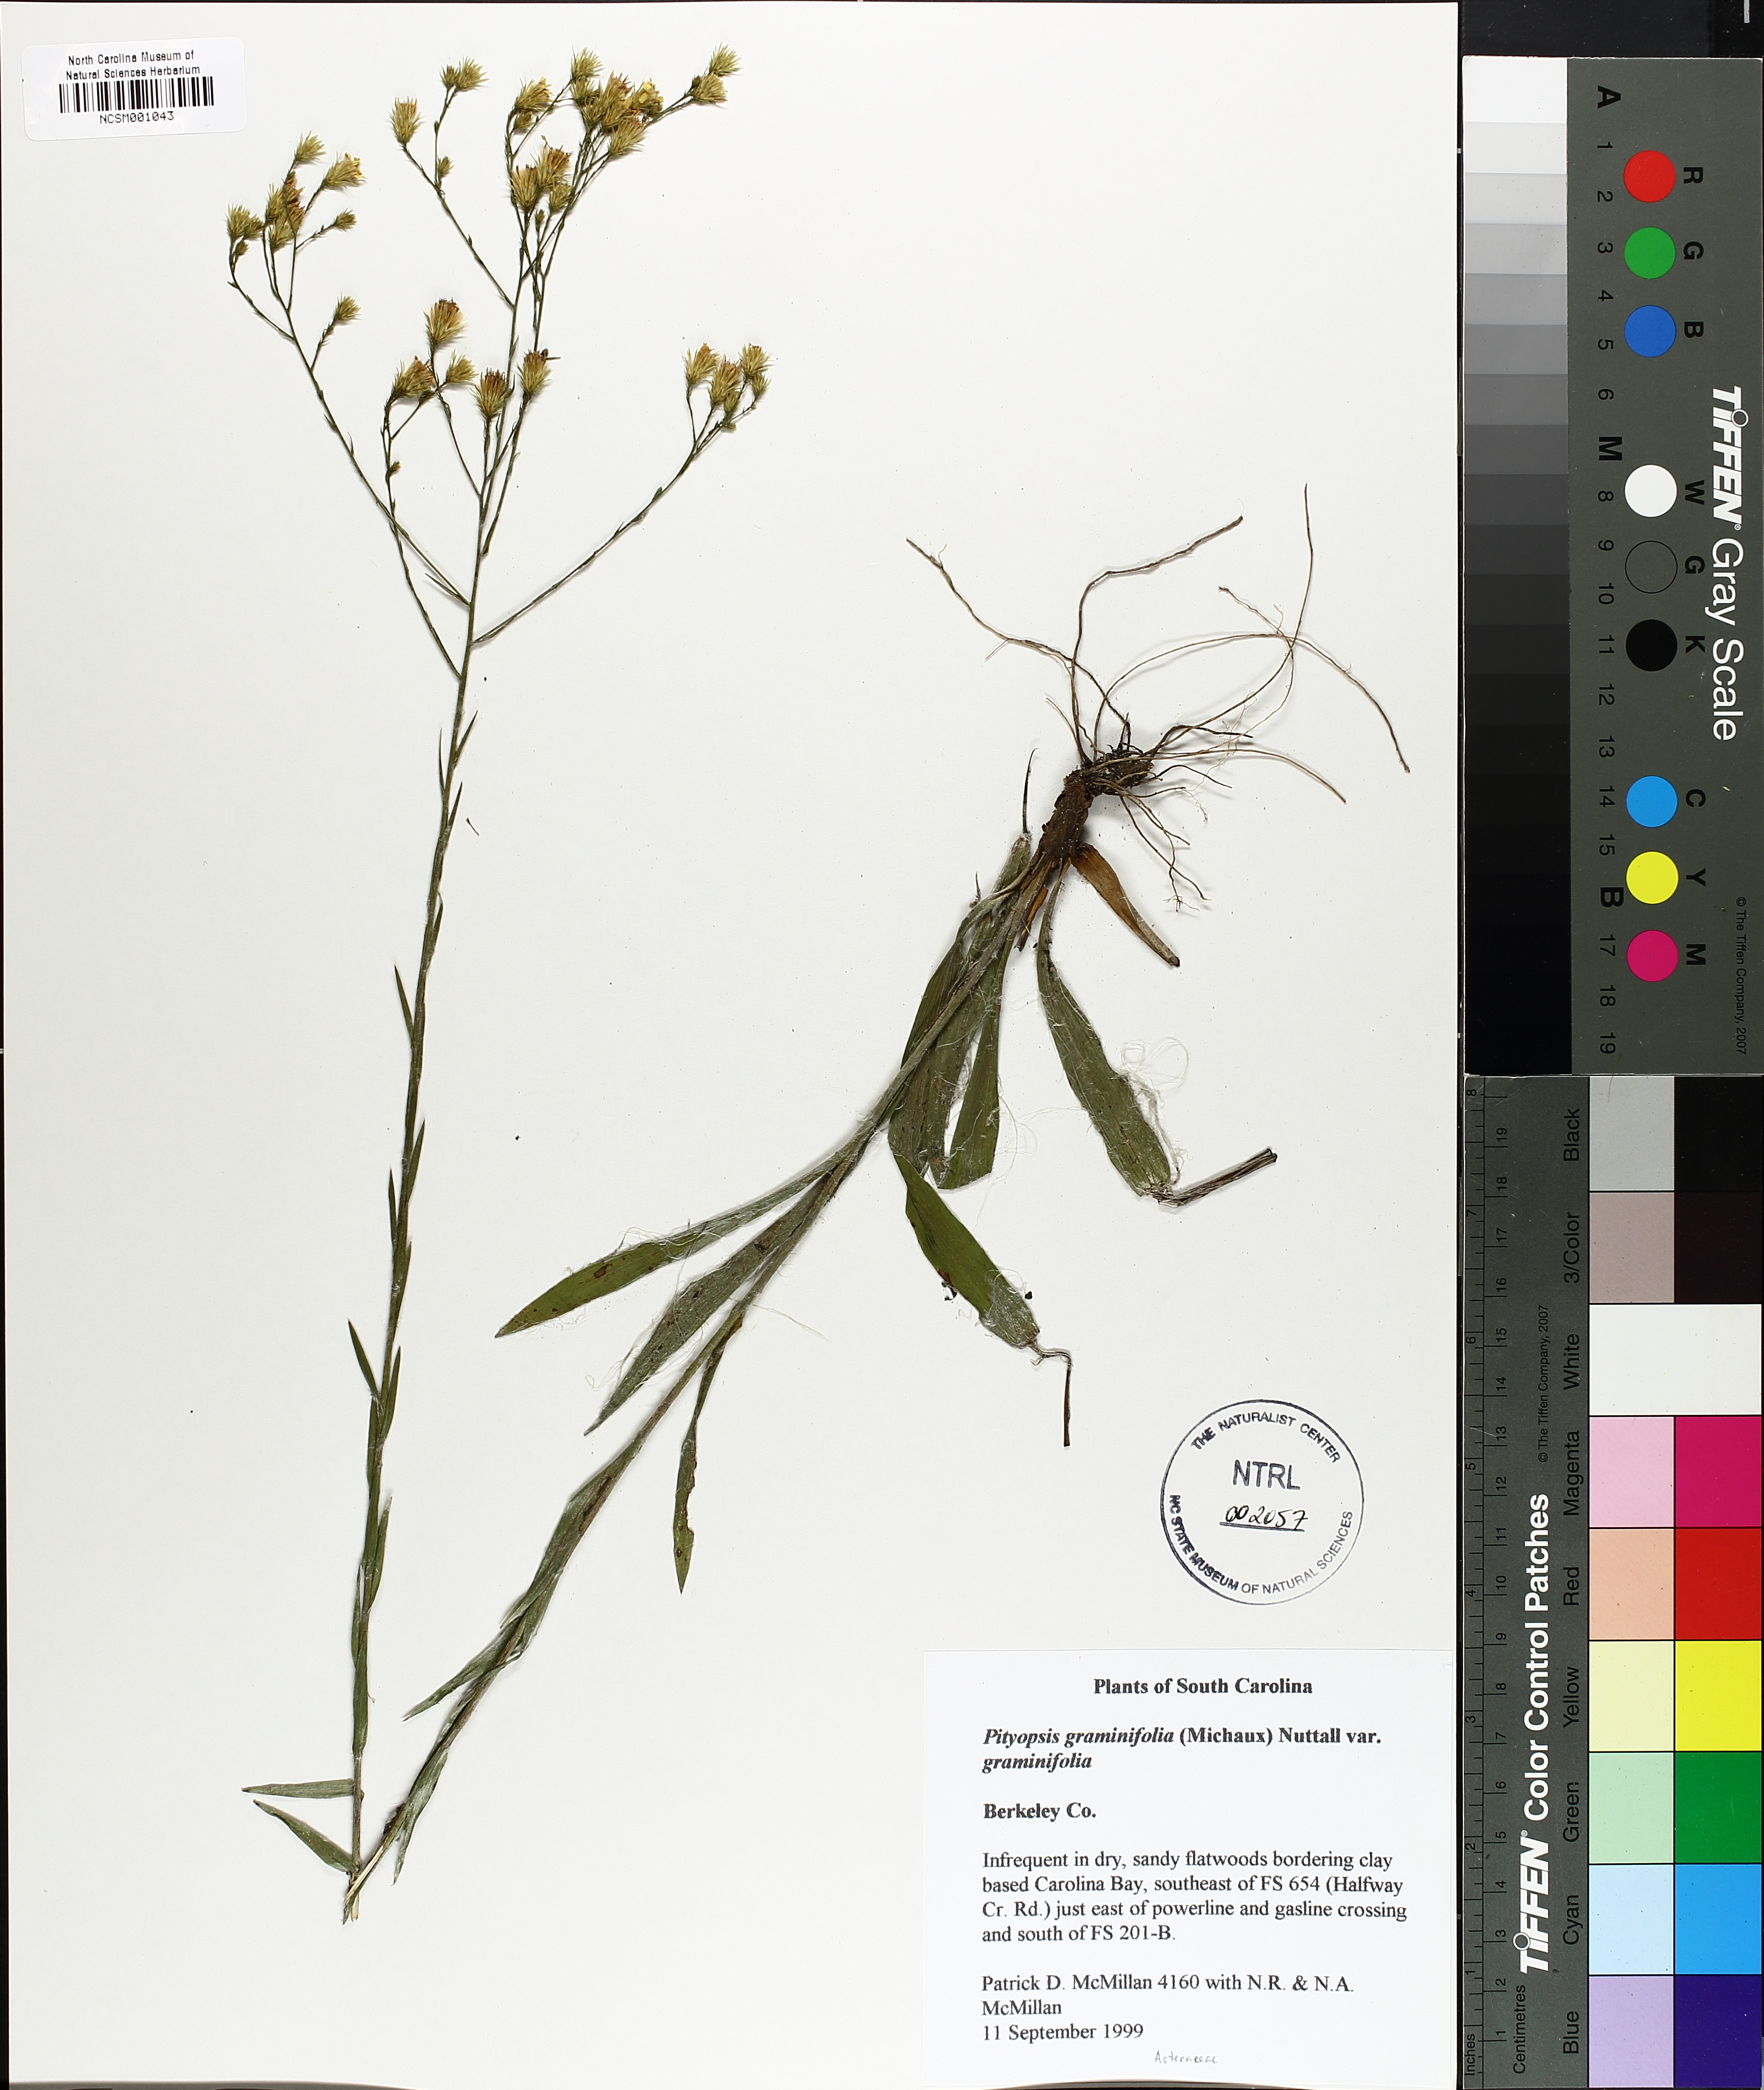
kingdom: Plantae
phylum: Tracheophyta
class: Magnoliopsida
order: Asterales
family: Asteraceae
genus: Pityopsis
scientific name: Pityopsis graminifolia
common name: Grass-leaf golden-aster
